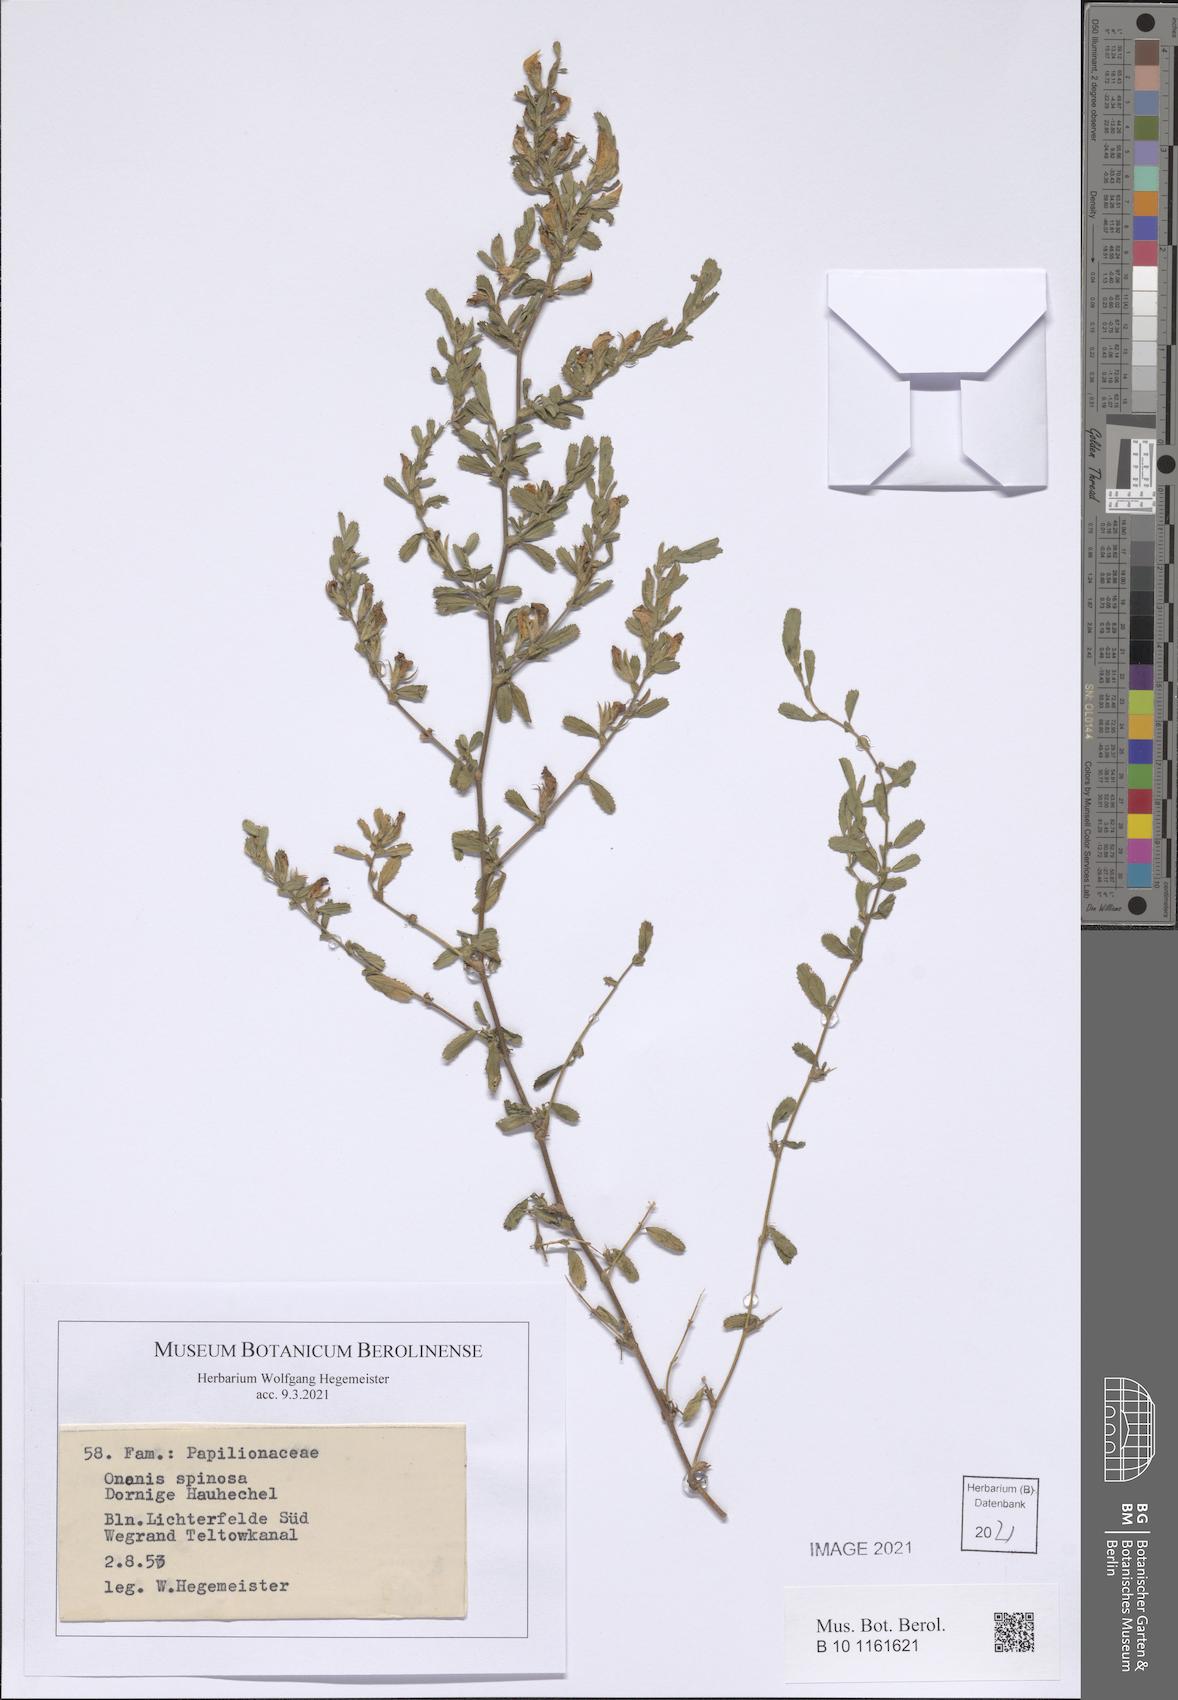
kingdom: Plantae
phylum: Tracheophyta
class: Magnoliopsida
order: Fabales
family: Fabaceae
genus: Ononis
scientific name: Ononis spinosa
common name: Spiny restharrow
